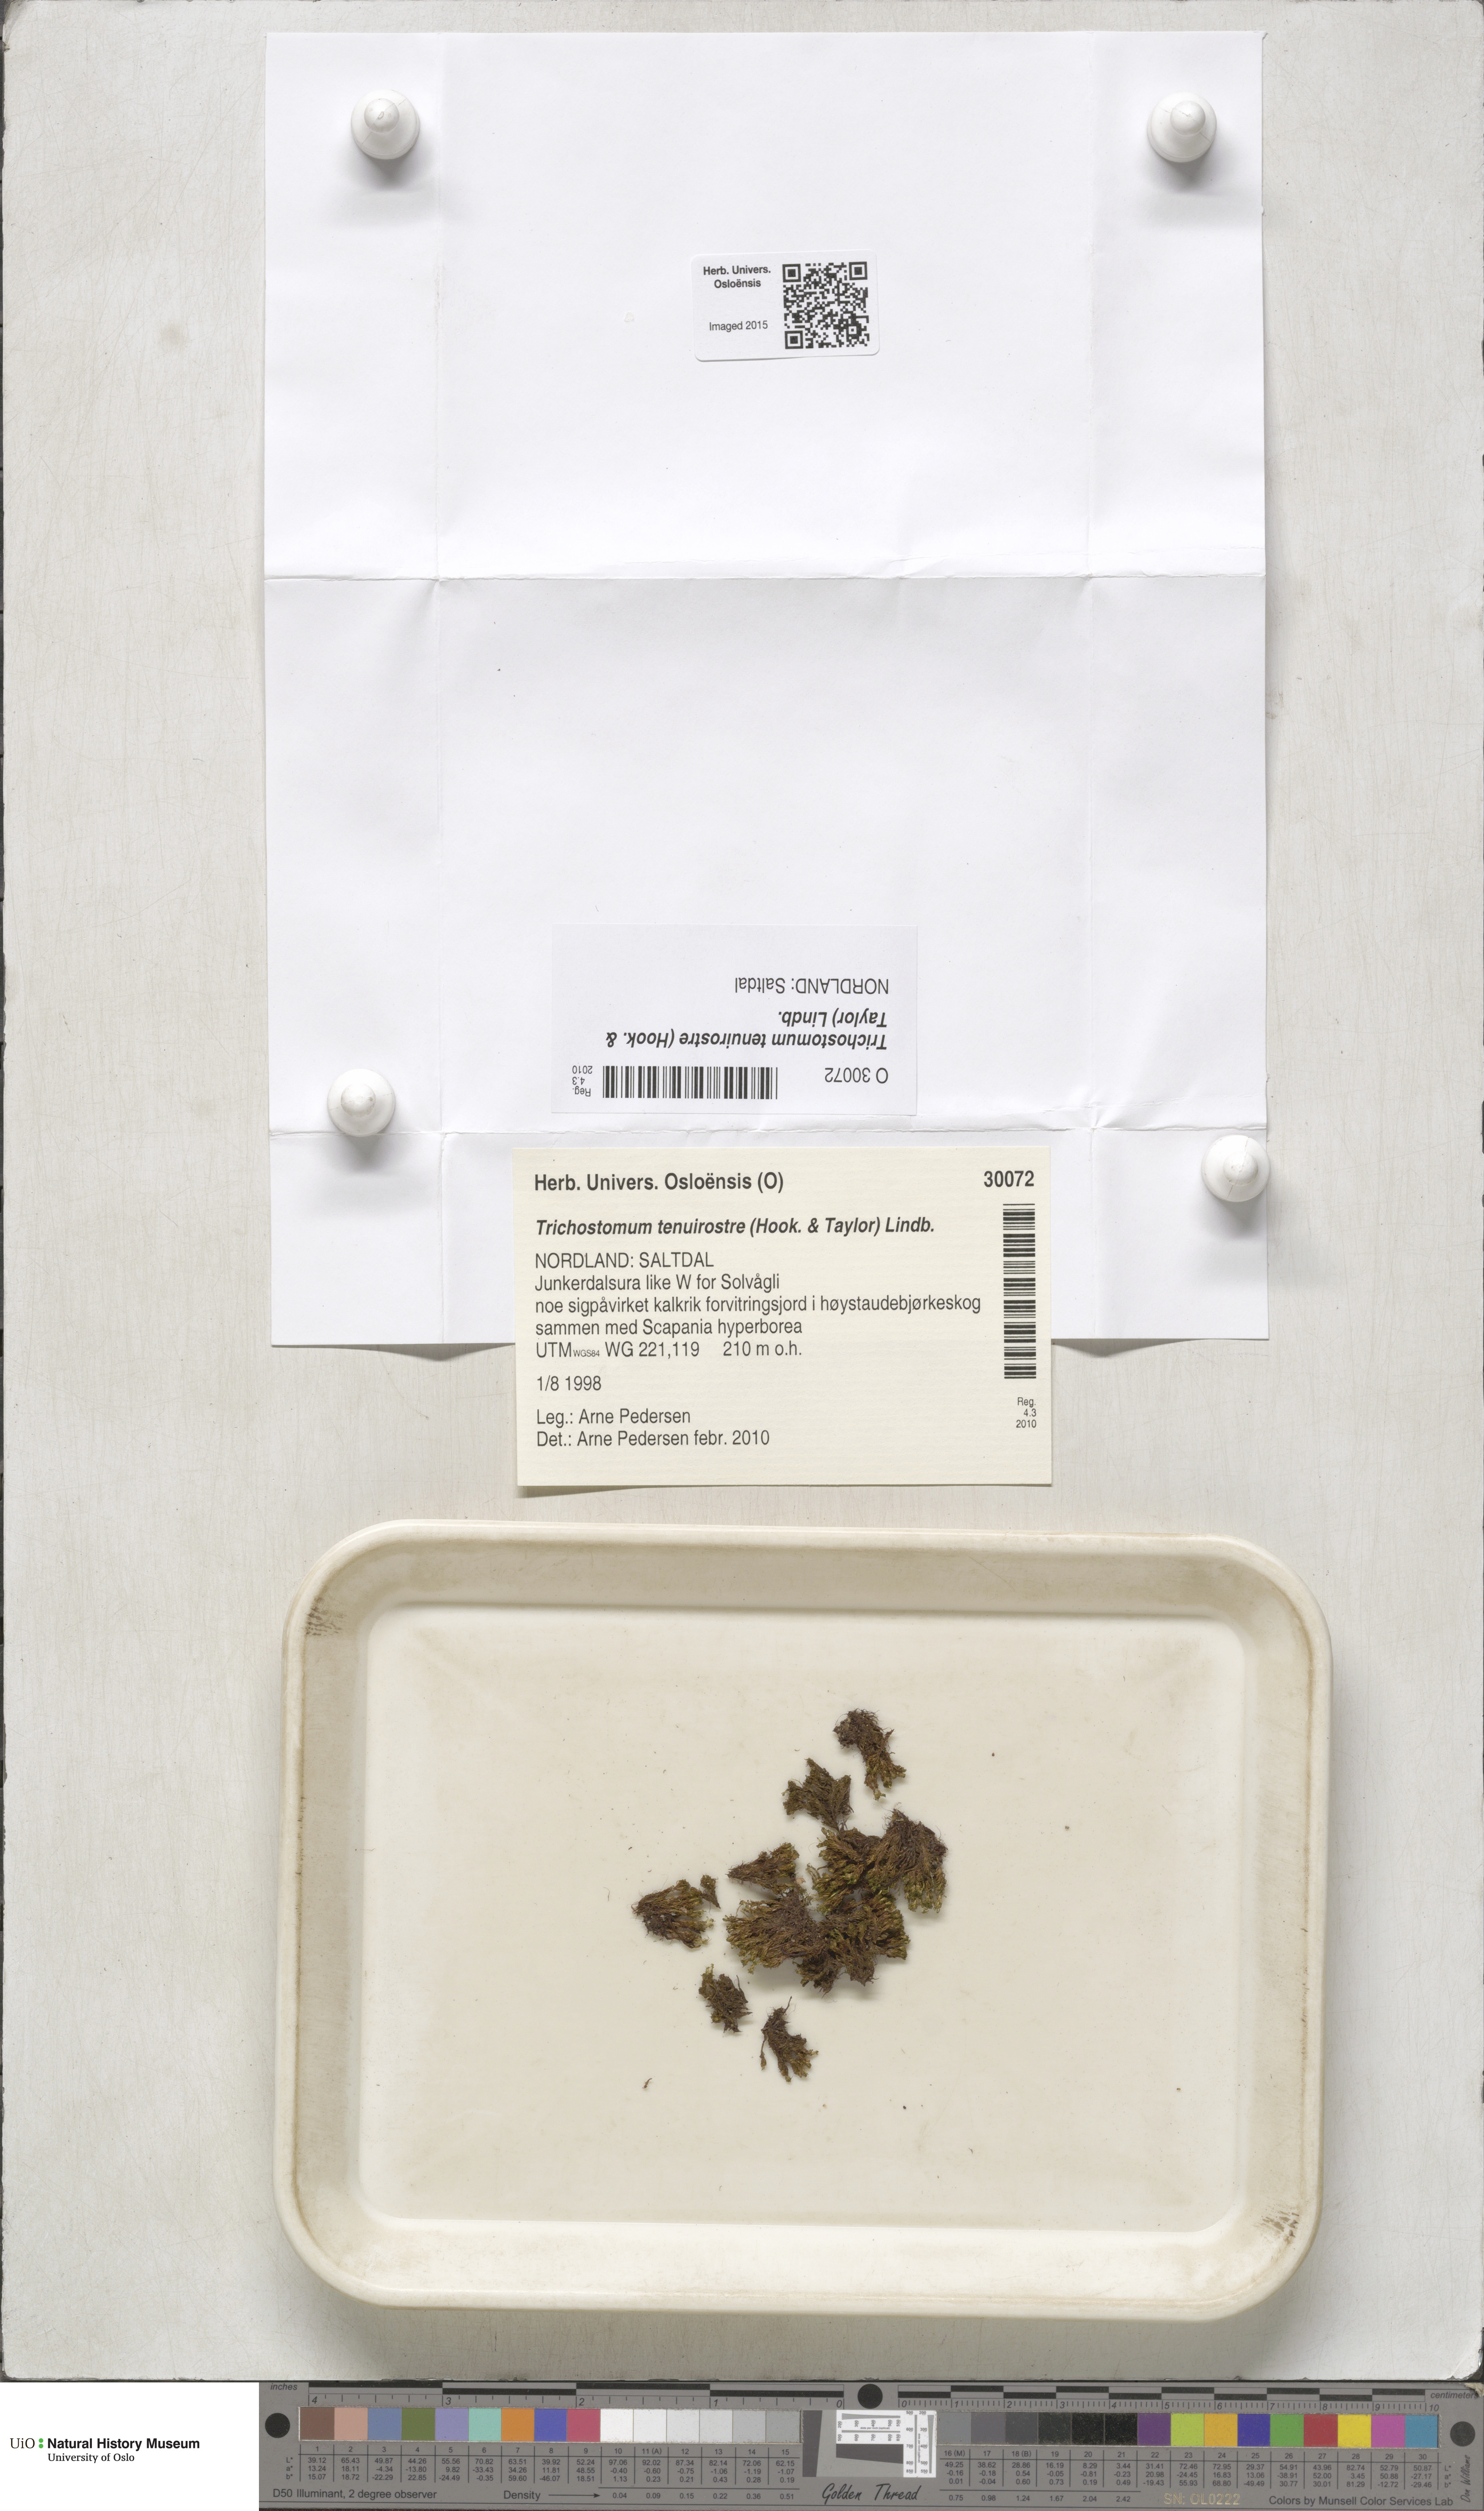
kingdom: Plantae
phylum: Bryophyta
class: Bryopsida
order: Pottiales
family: Pottiaceae
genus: Chionoloma
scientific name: Chionoloma tenuirostre
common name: Narrow-fruited crisp-moss
